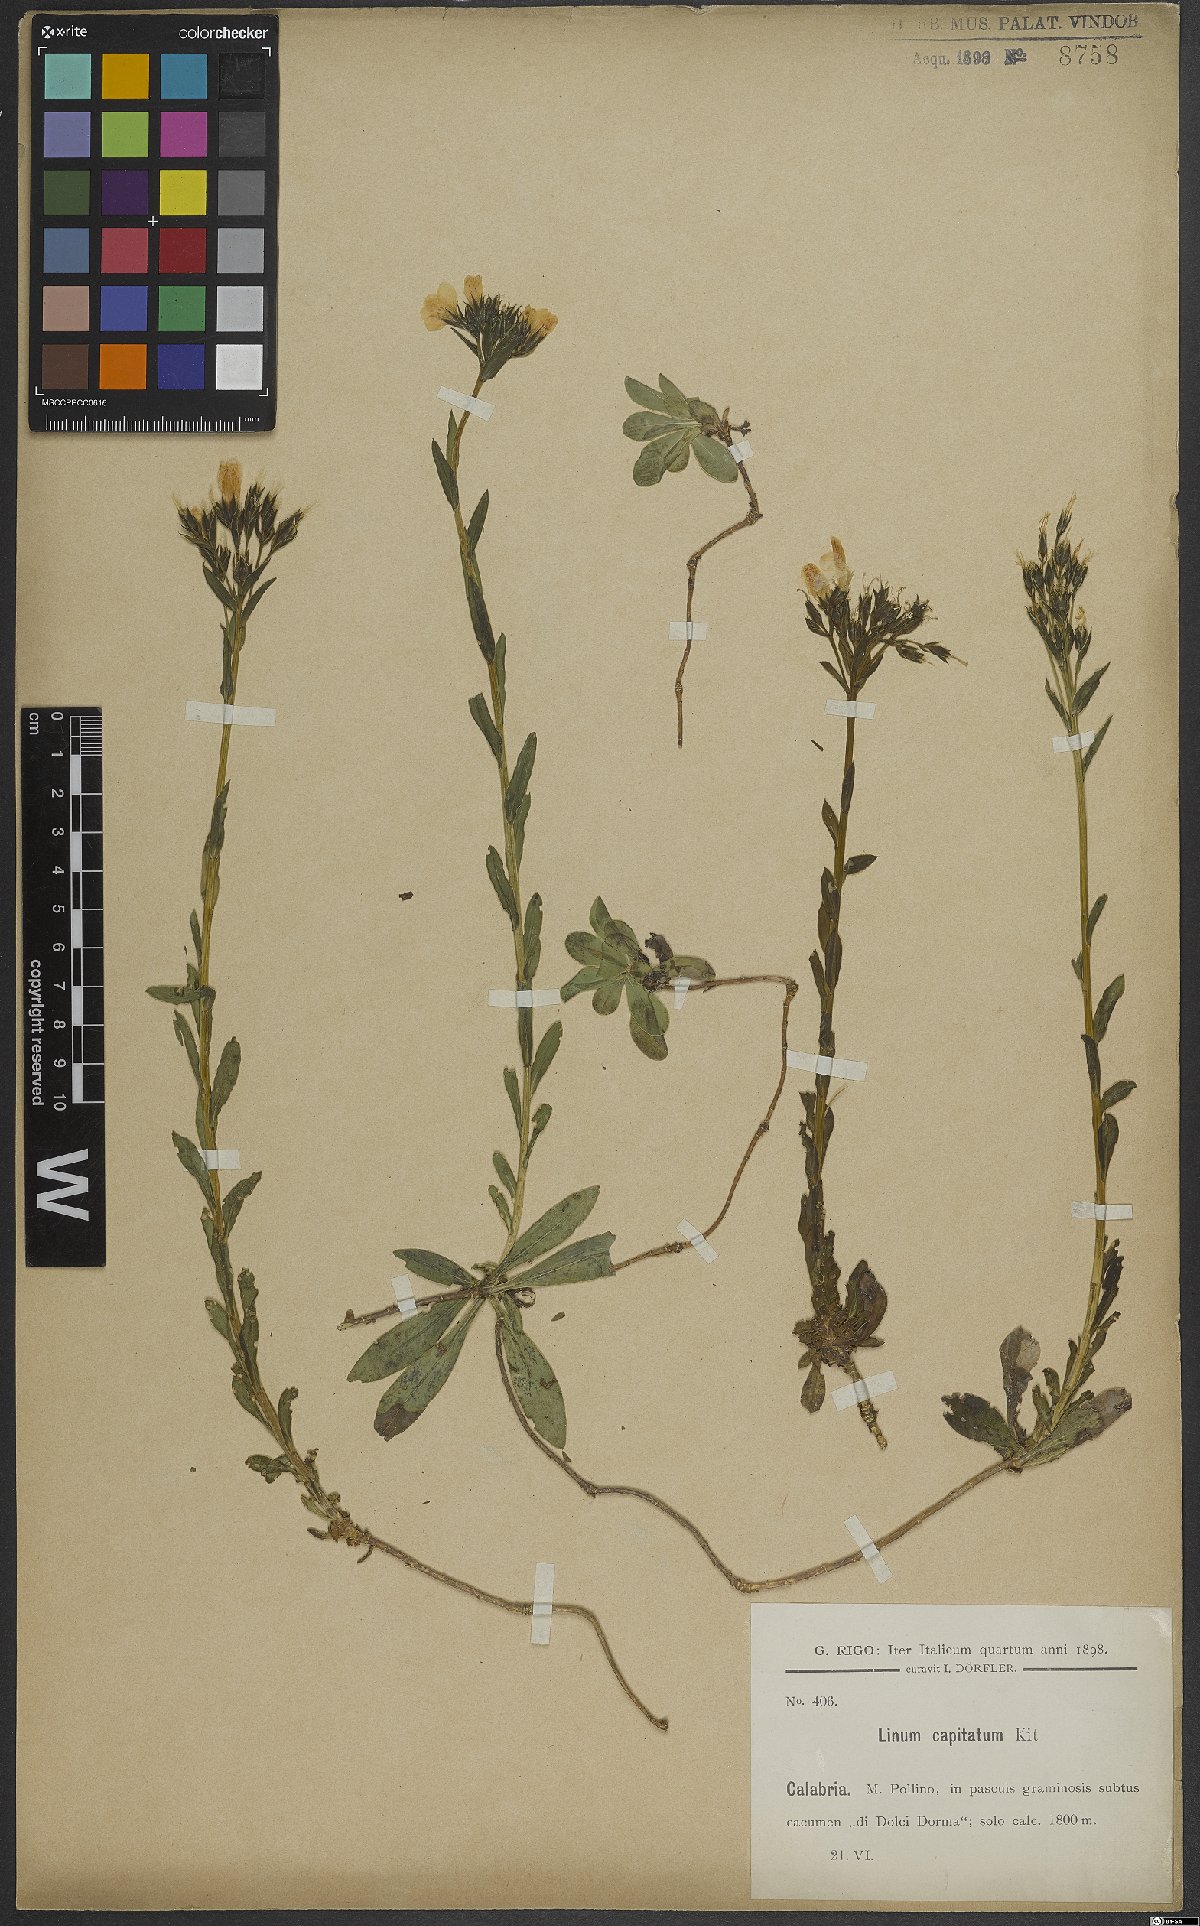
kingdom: Plantae
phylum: Tracheophyta
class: Magnoliopsida
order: Malpighiales
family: Linaceae
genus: Linum
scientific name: Linum capitatum
